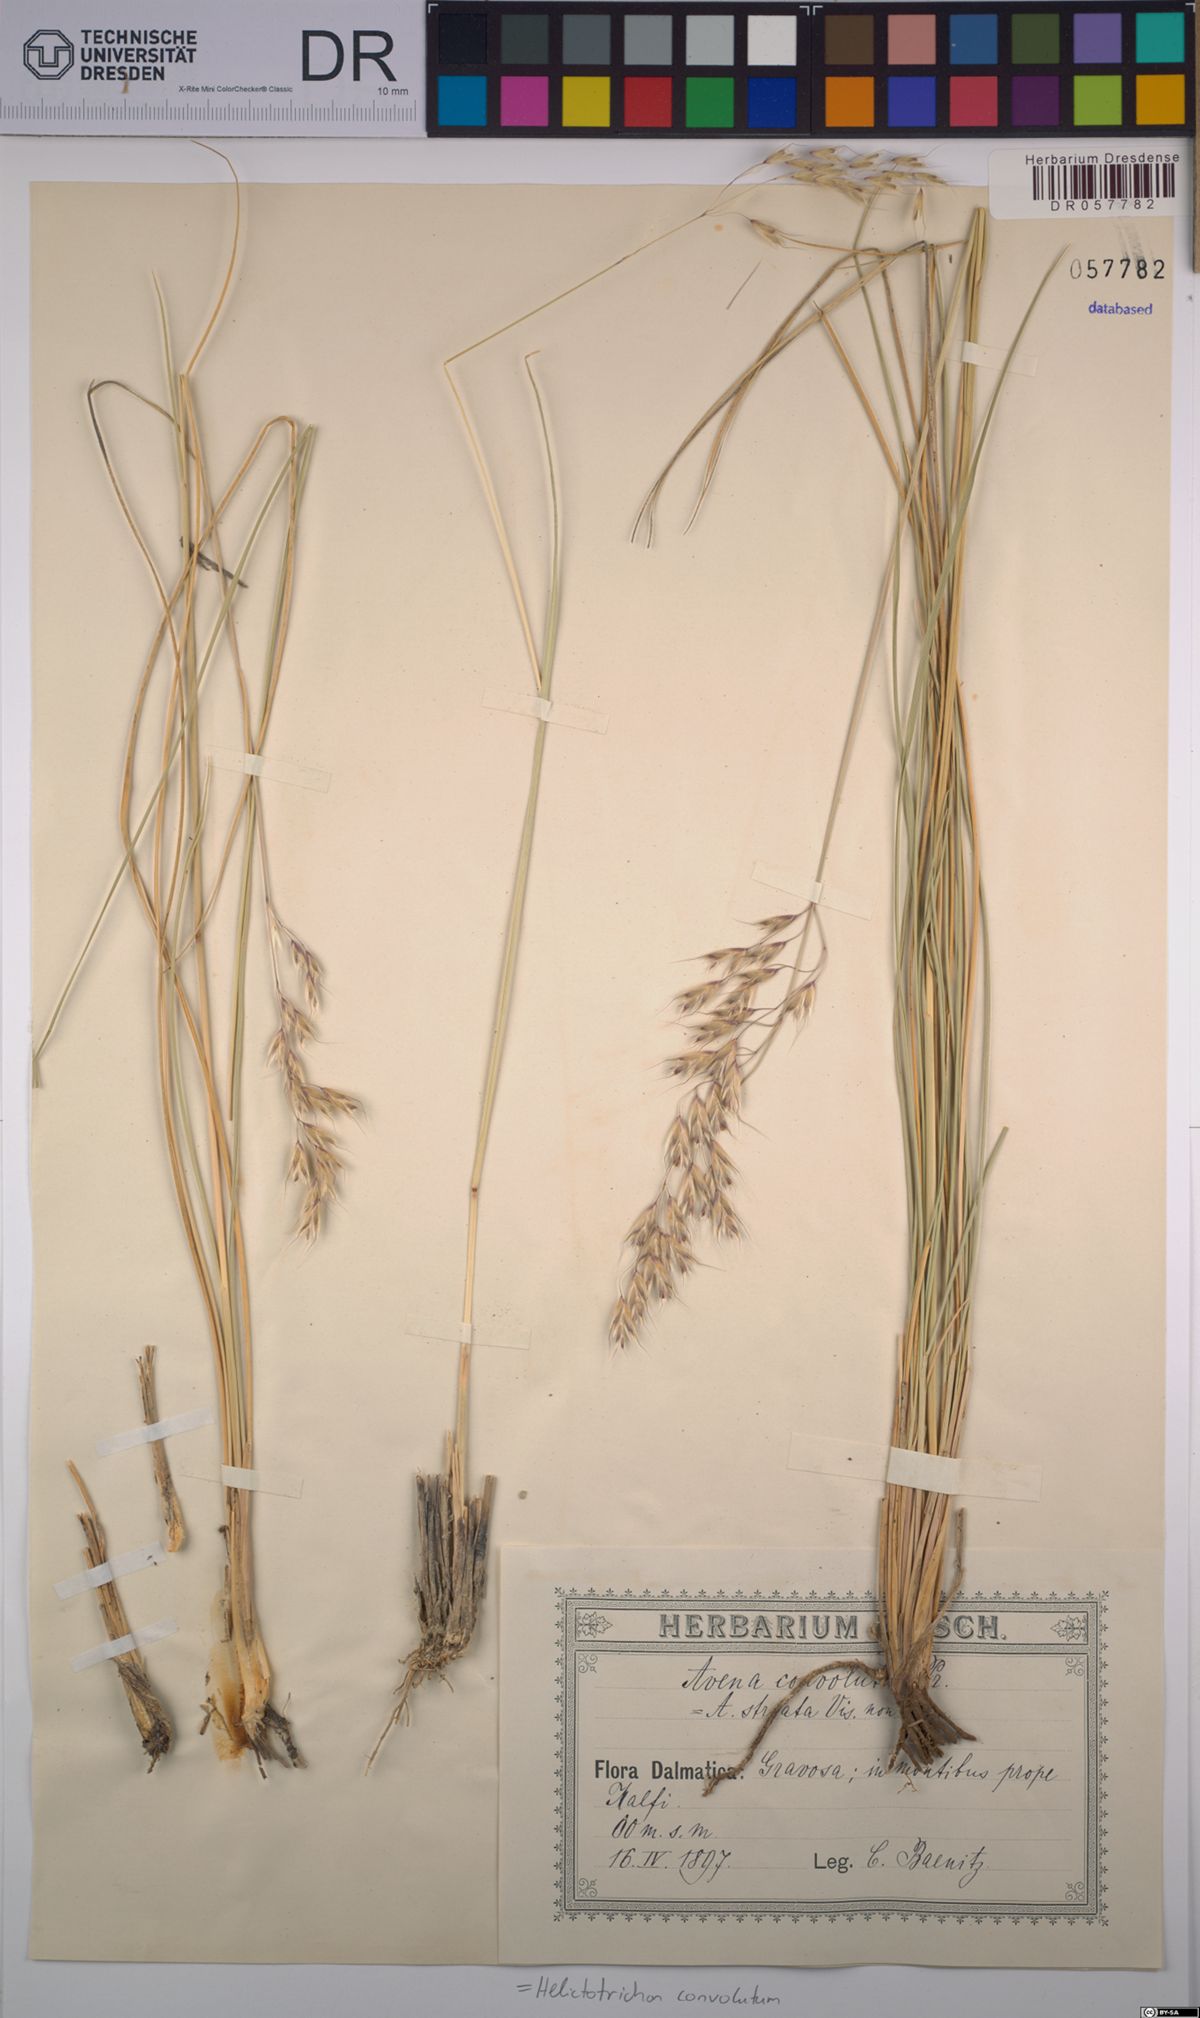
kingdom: Plantae
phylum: Tracheophyta
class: Liliopsida
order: Poales
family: Poaceae
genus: Helictotrichon
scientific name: Helictotrichon convolutum
